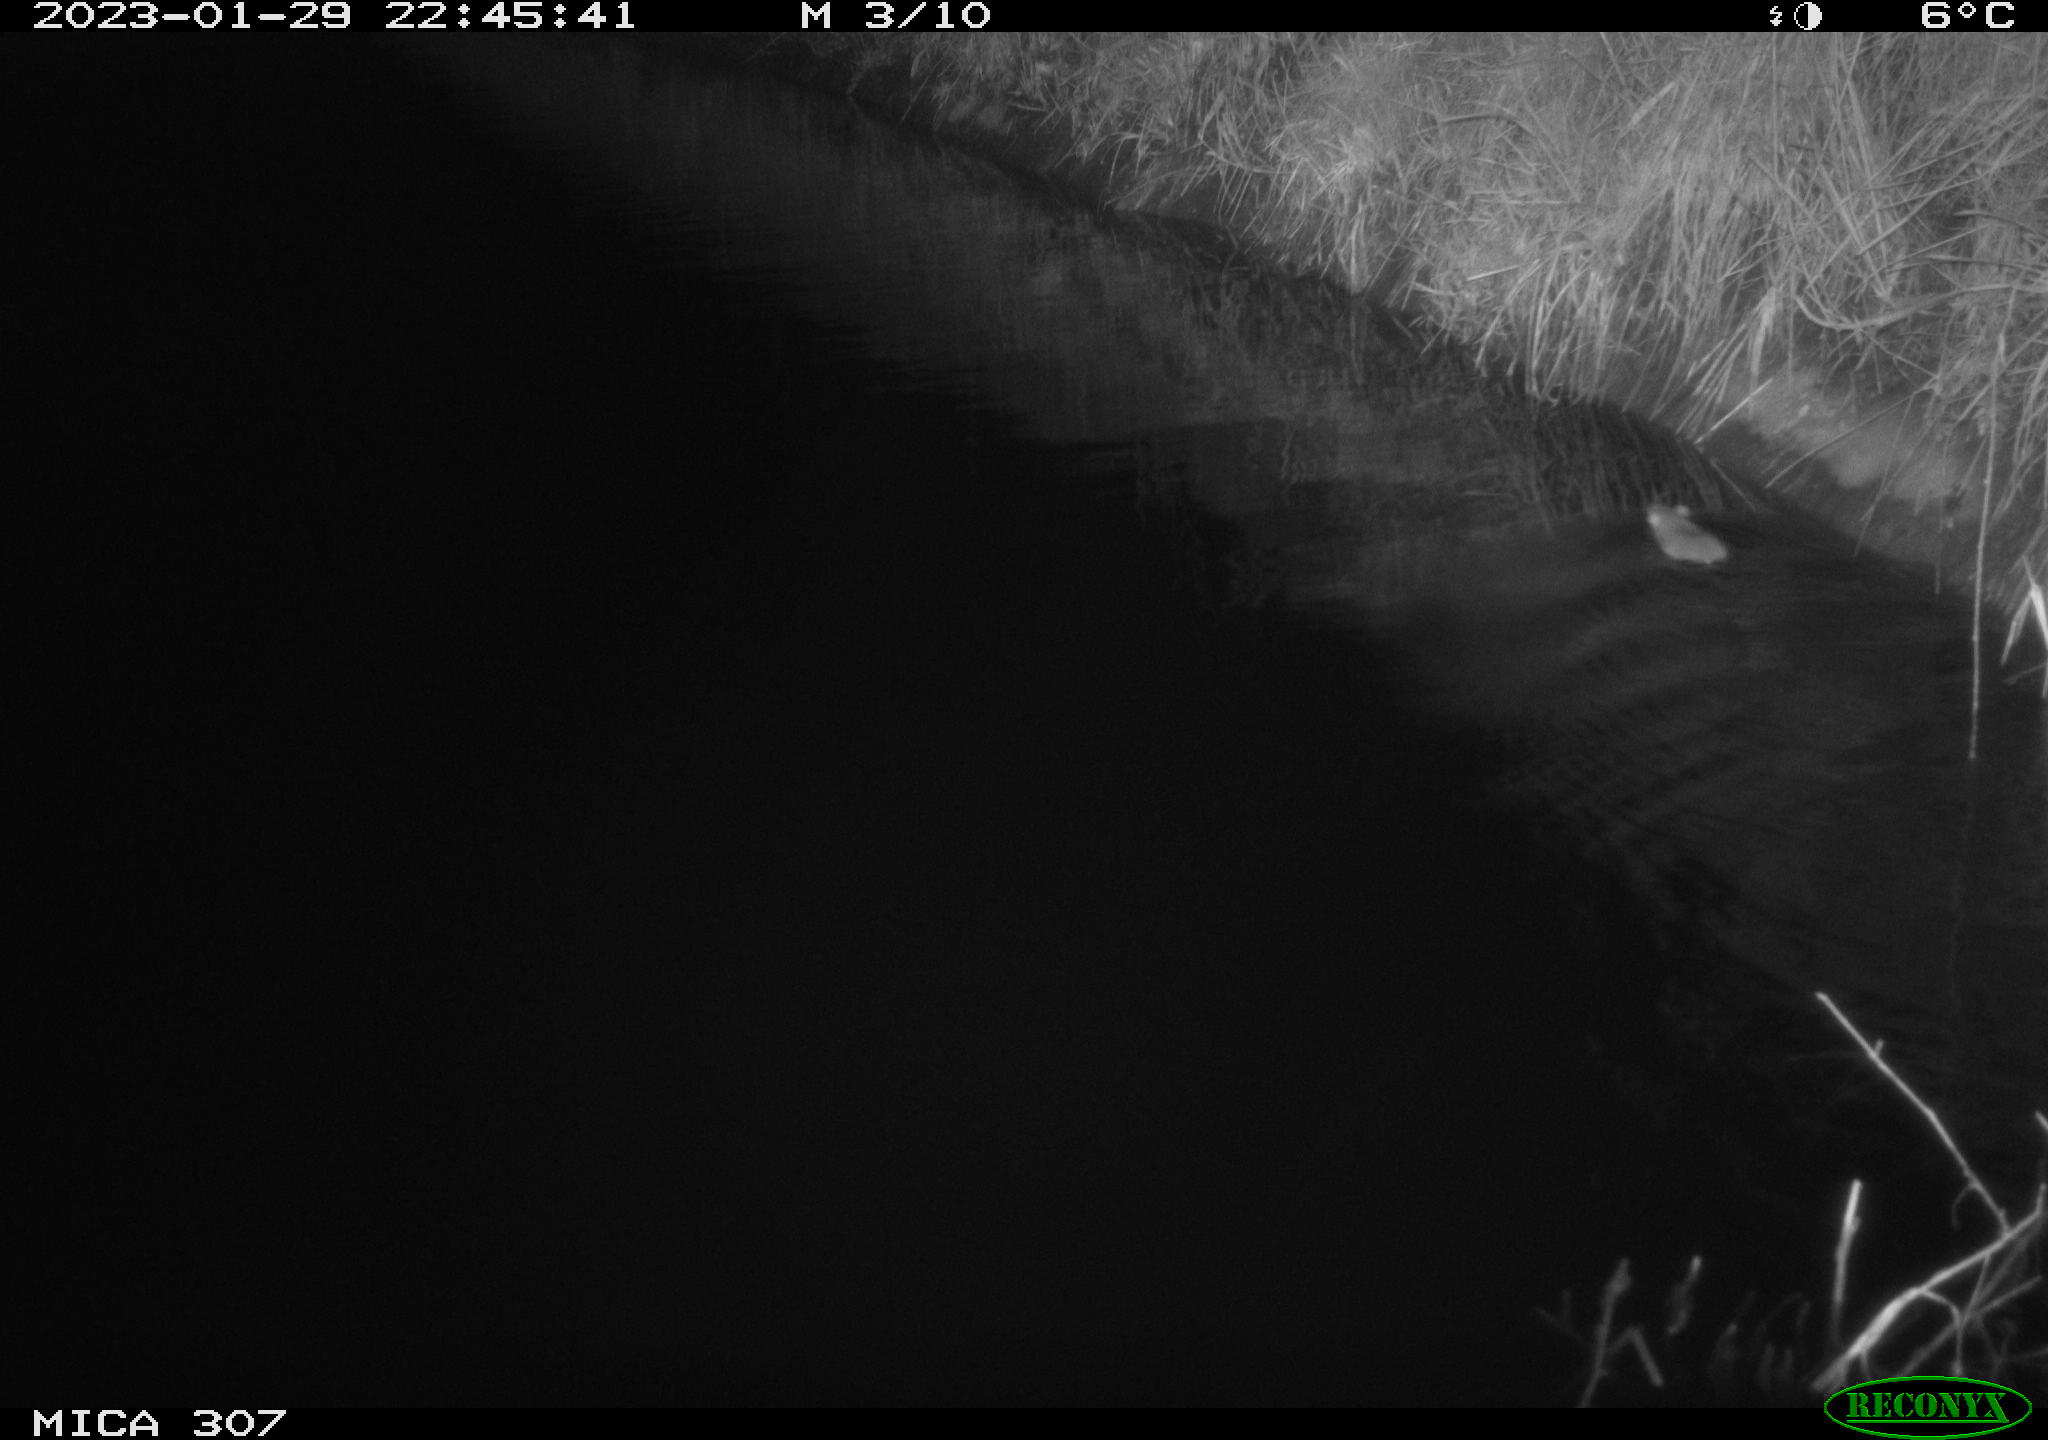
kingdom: Animalia
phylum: Chordata
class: Mammalia
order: Rodentia
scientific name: Rodentia
